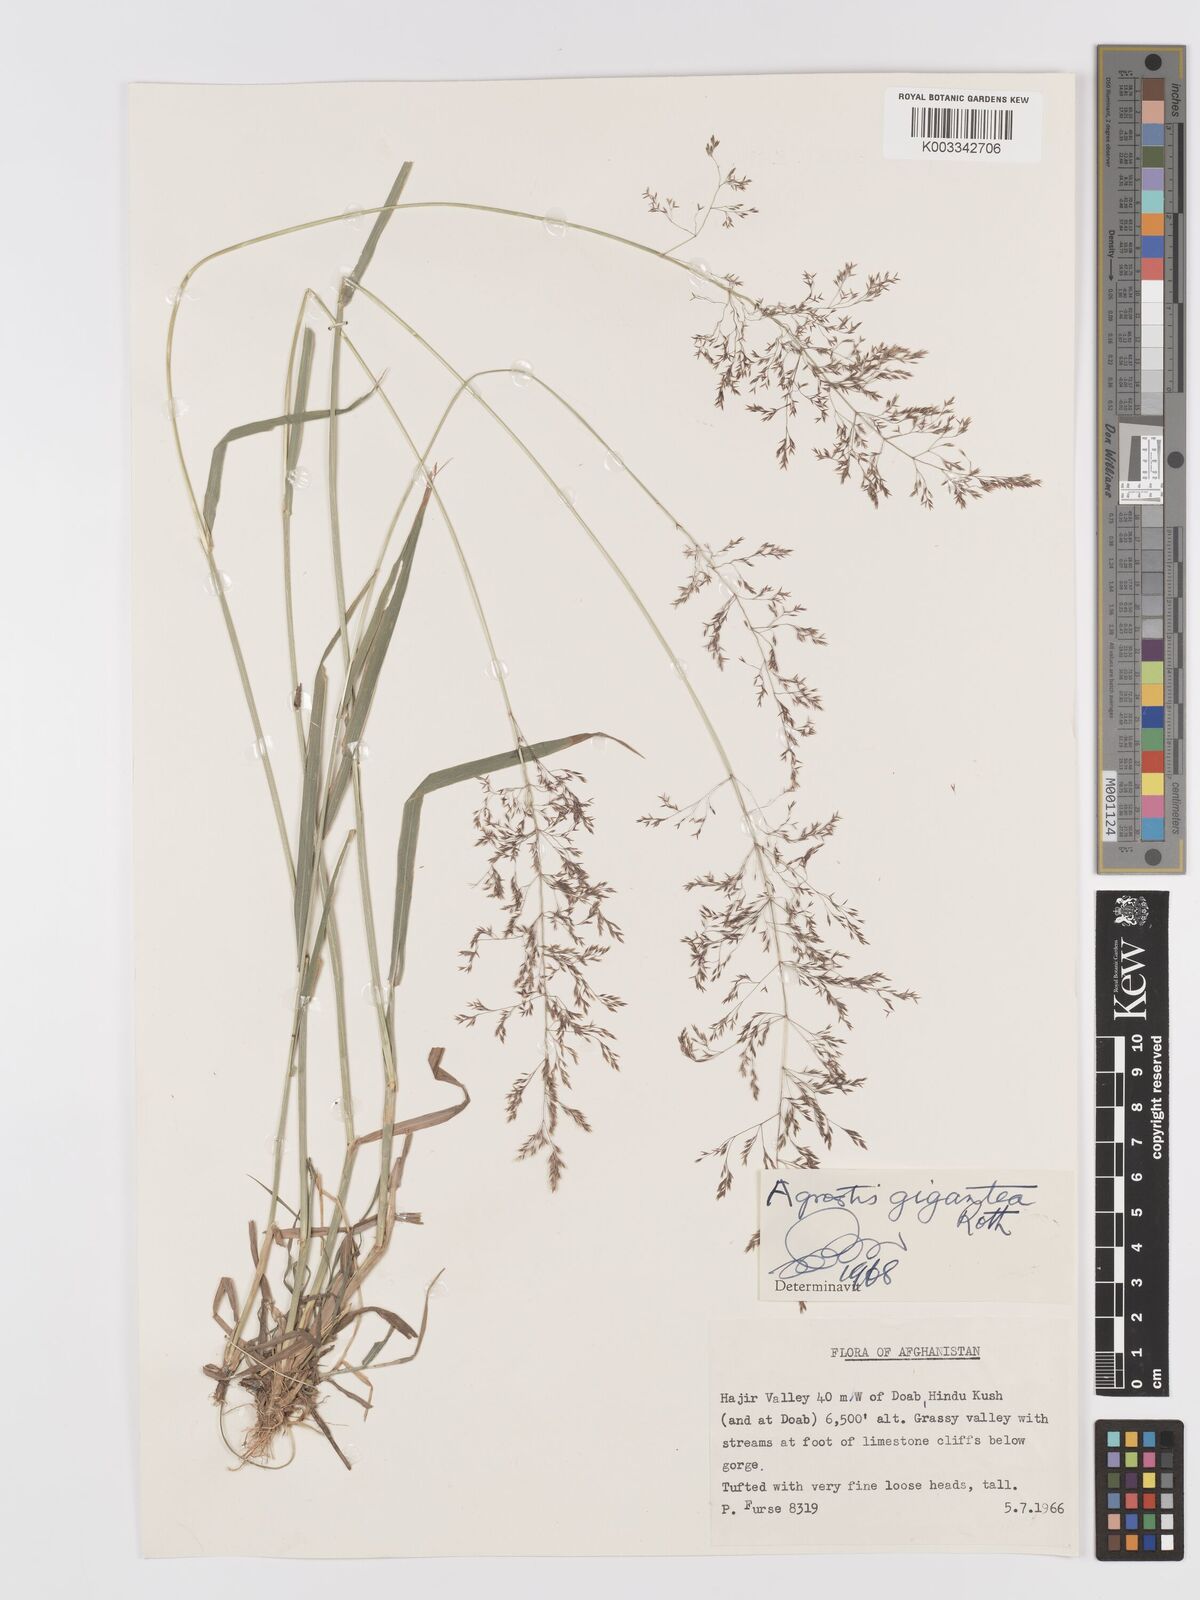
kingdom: Plantae
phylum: Tracheophyta
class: Liliopsida
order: Poales
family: Poaceae
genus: Agrostis
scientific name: Agrostis gigantea
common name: Black bent
